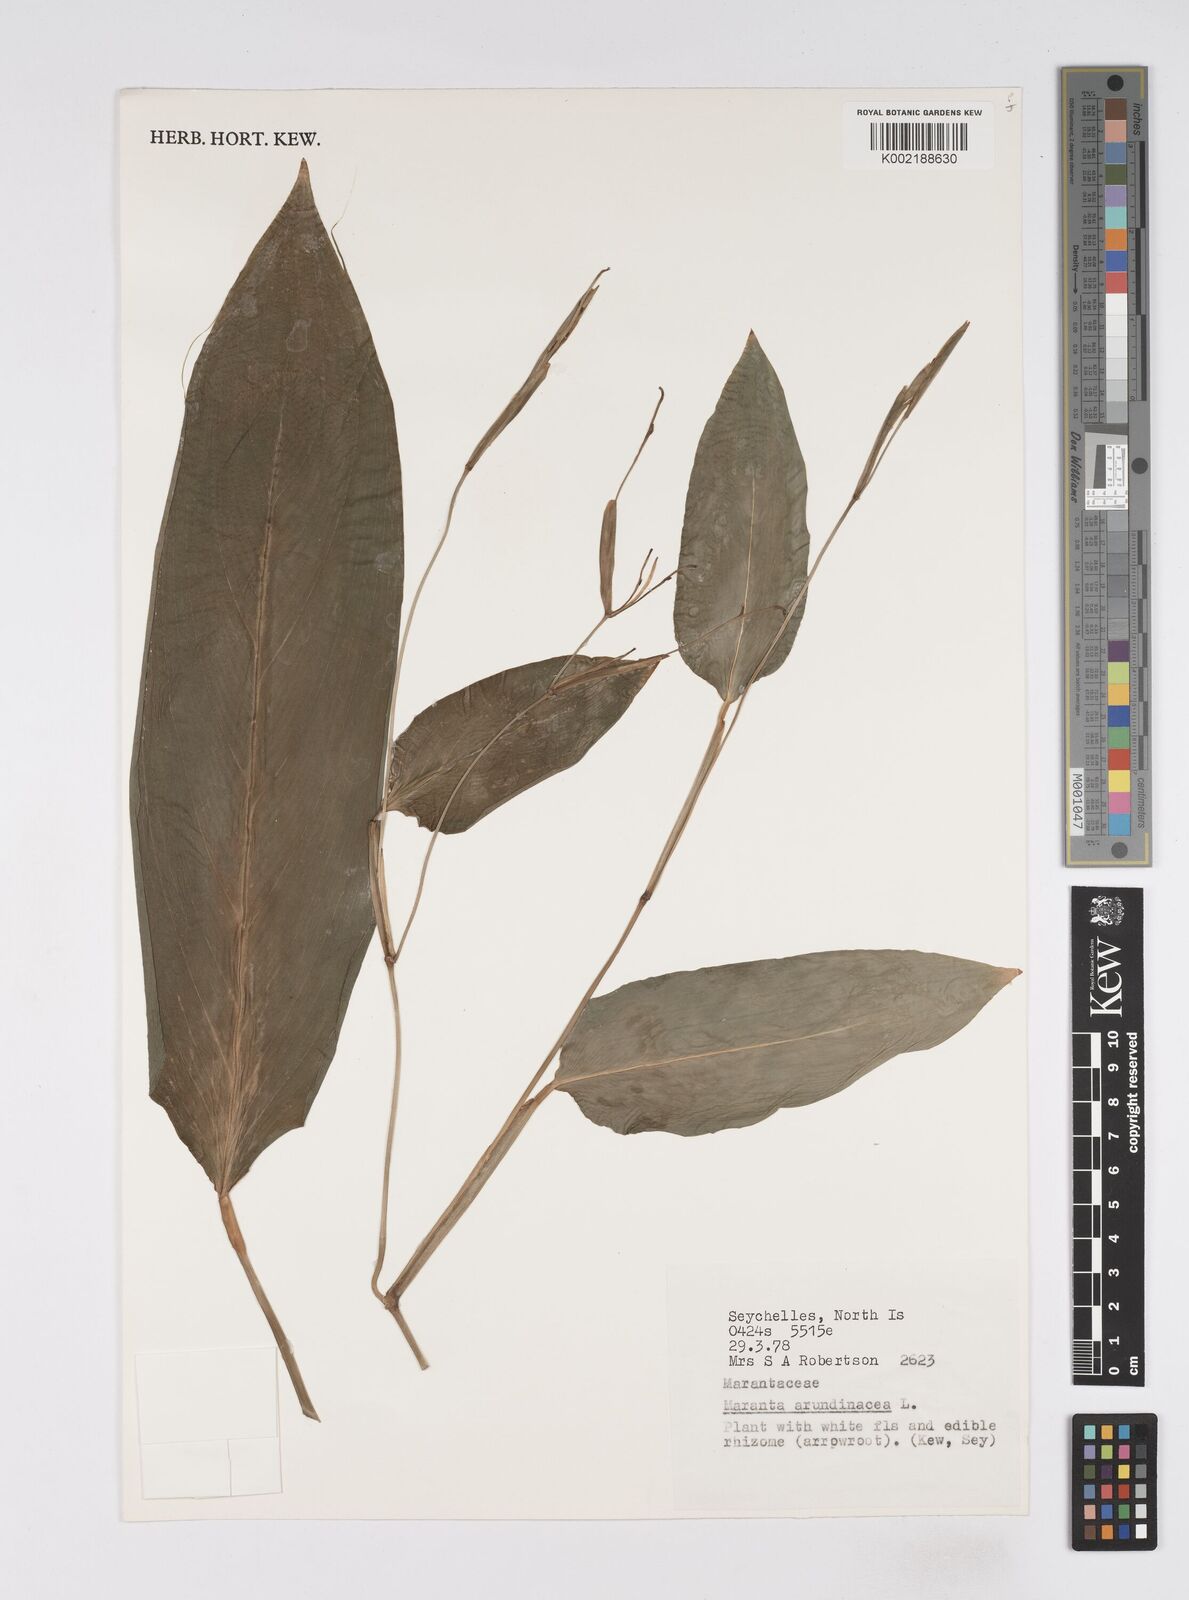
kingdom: Plantae
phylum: Tracheophyta
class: Liliopsida
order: Zingiberales
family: Marantaceae
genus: Maranta
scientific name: Maranta arundinacea
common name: Arrowroot
